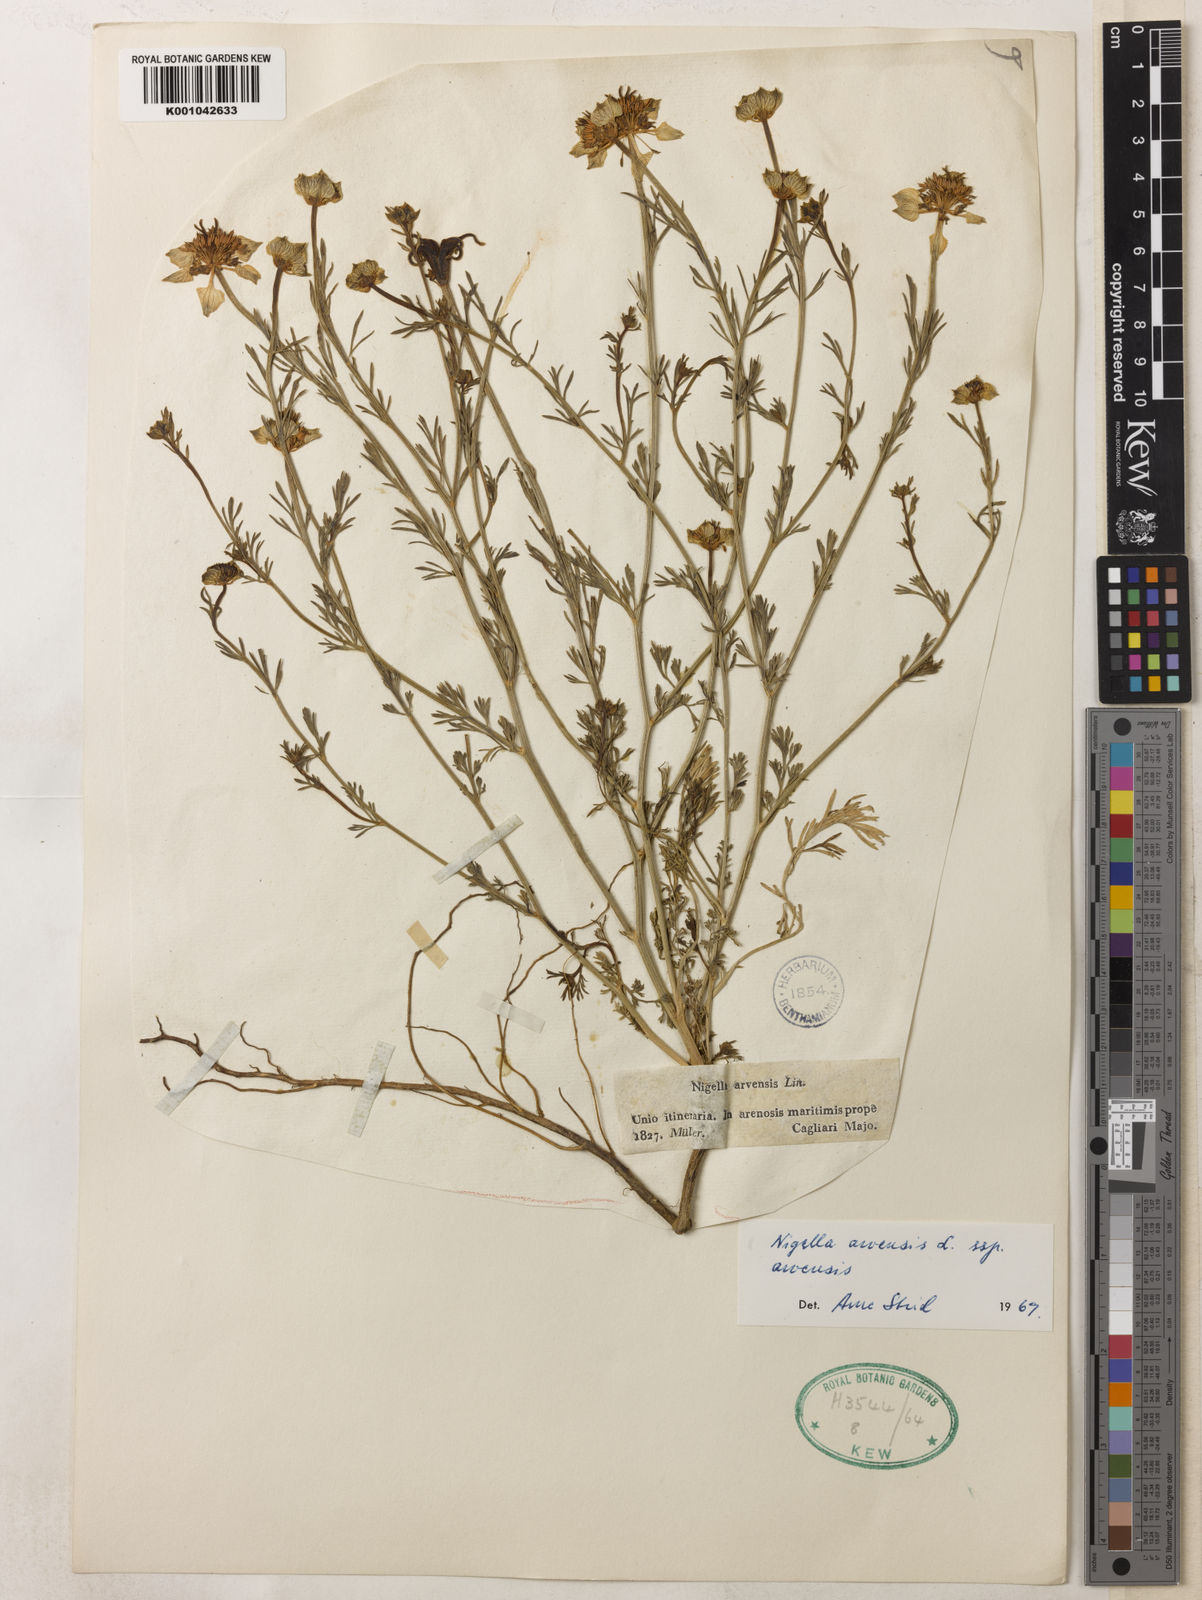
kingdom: Plantae
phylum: Tracheophyta
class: Magnoliopsida
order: Ranunculales
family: Ranunculaceae
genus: Nigella
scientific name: Nigella arvensis
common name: Wild fennel-flower
